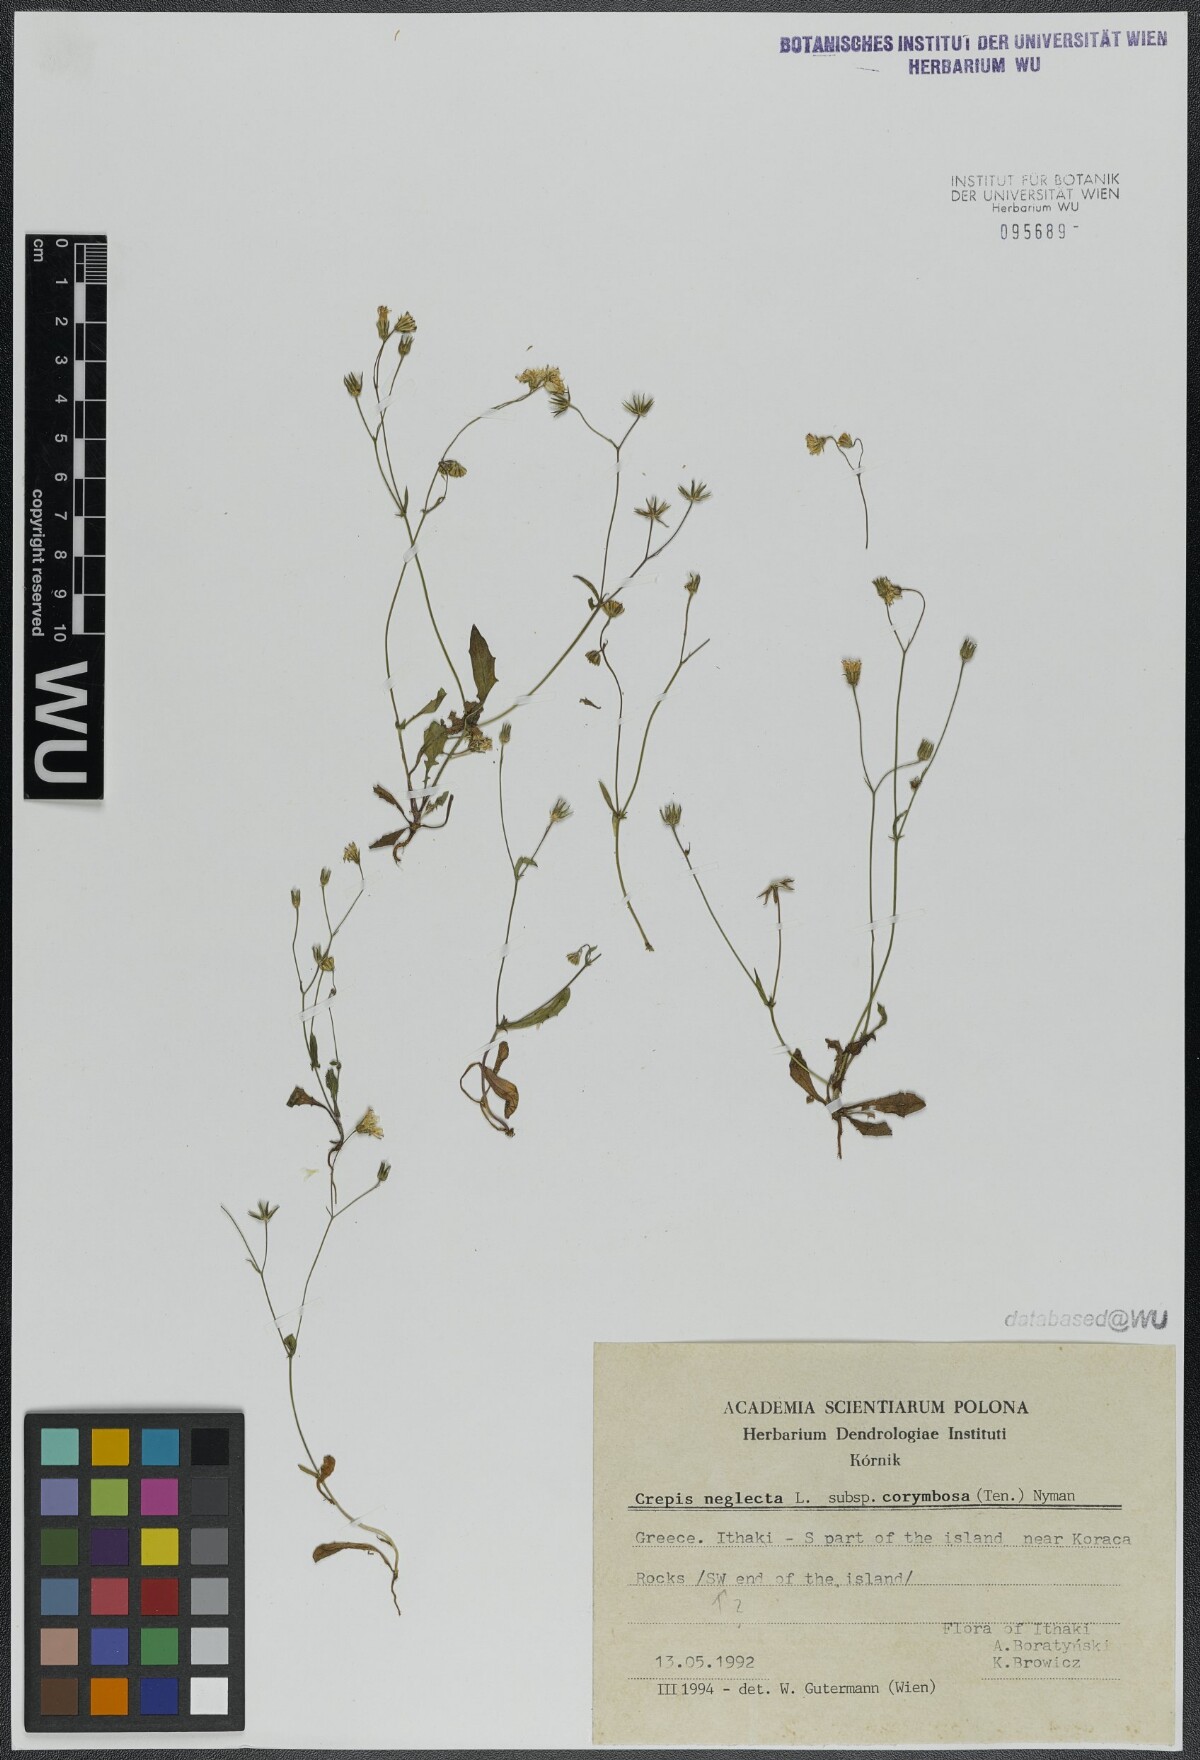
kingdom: Plantae
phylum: Tracheophyta
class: Magnoliopsida
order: Asterales
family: Asteraceae
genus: Crepis
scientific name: Crepis neglecta
